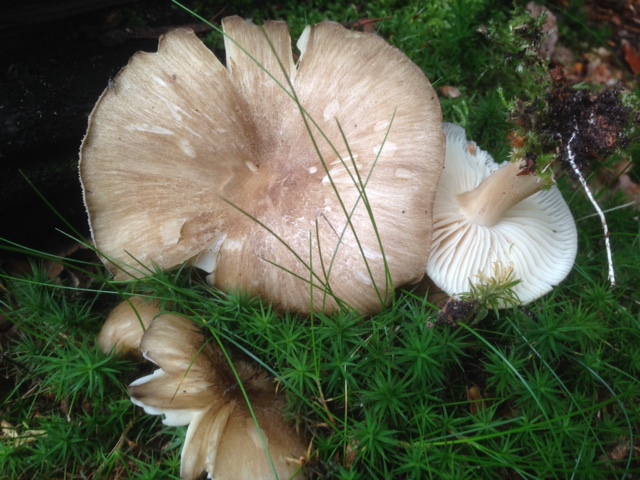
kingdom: Fungi
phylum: Basidiomycota
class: Agaricomycetes
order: Agaricales
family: Tricholomataceae
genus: Megacollybia
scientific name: Megacollybia platyphylla
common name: bredbladet væbnerhat
